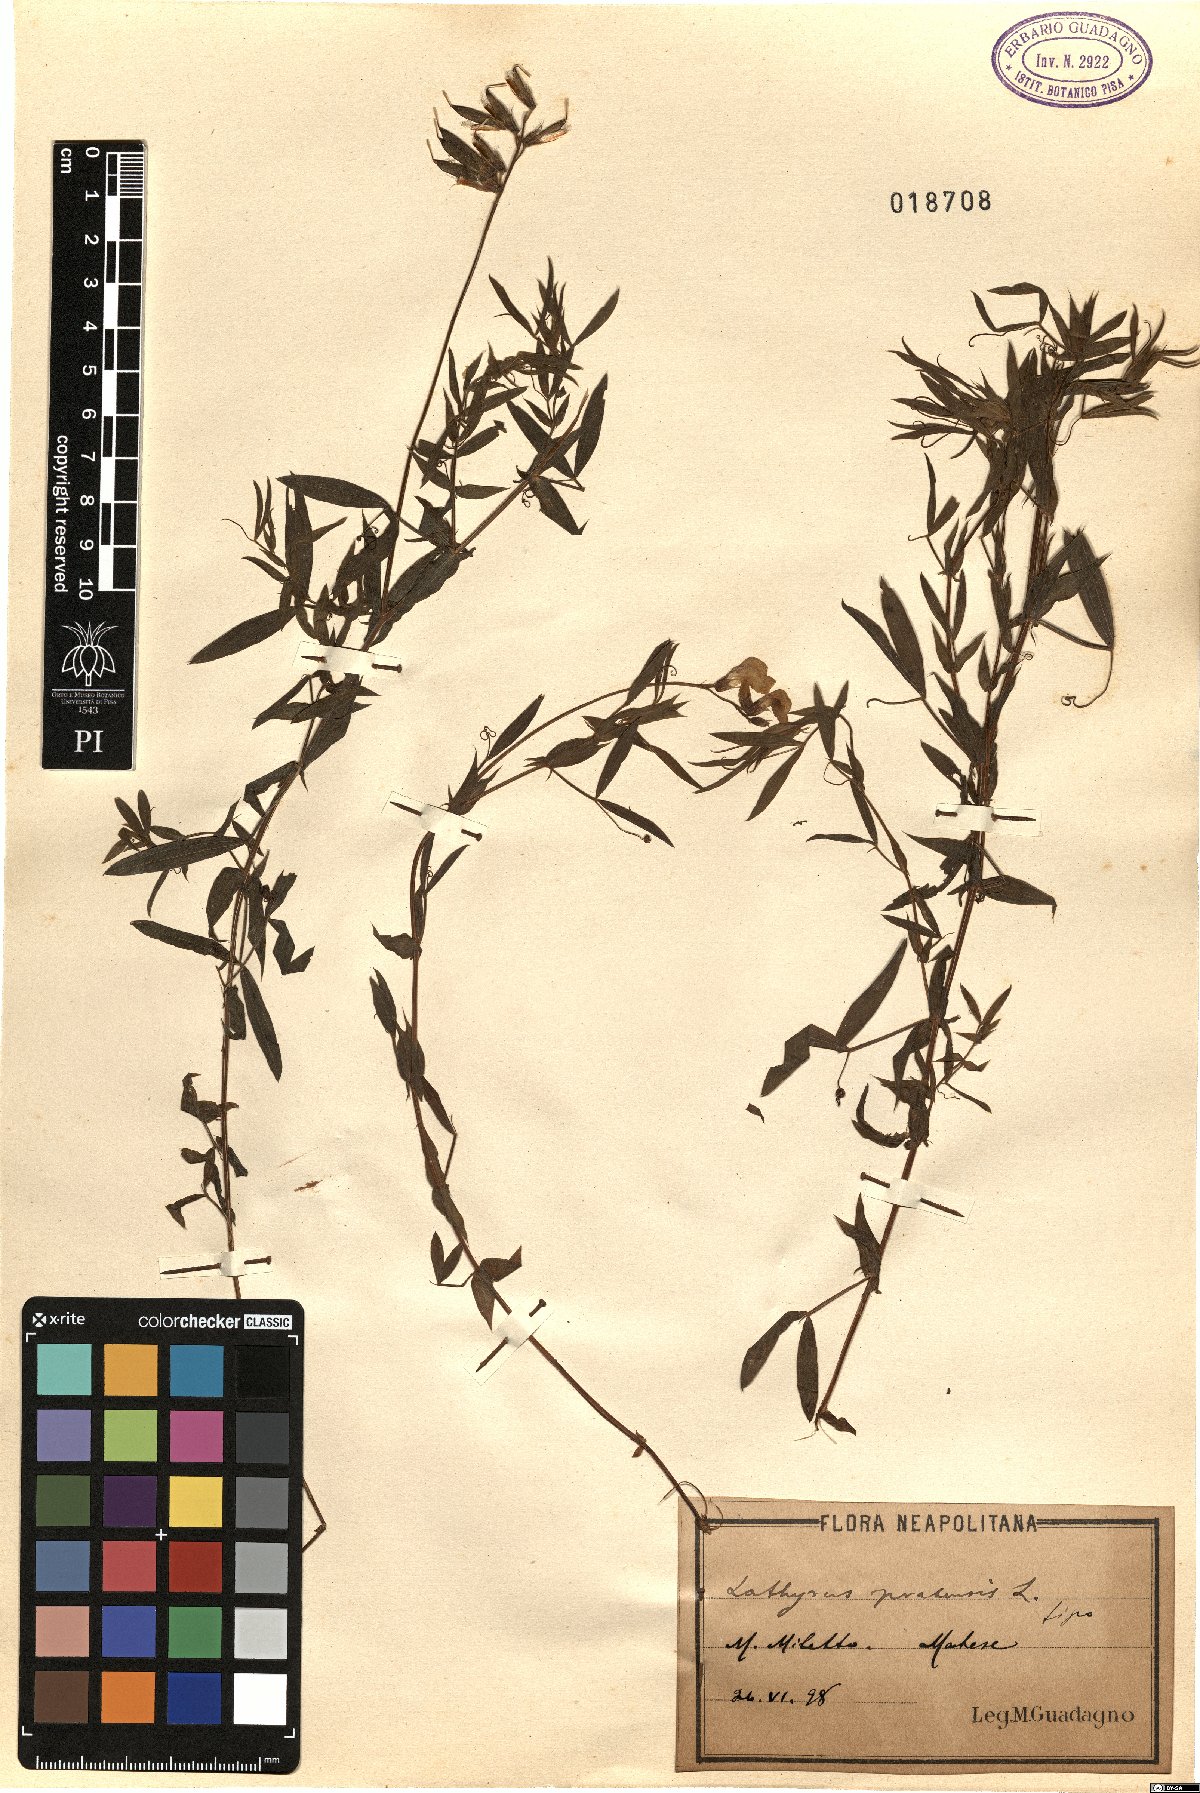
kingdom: Plantae
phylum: Tracheophyta
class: Magnoliopsida
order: Fabales
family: Fabaceae
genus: Lathyrus
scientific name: Lathyrus pratensis
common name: Meadow vetchling
